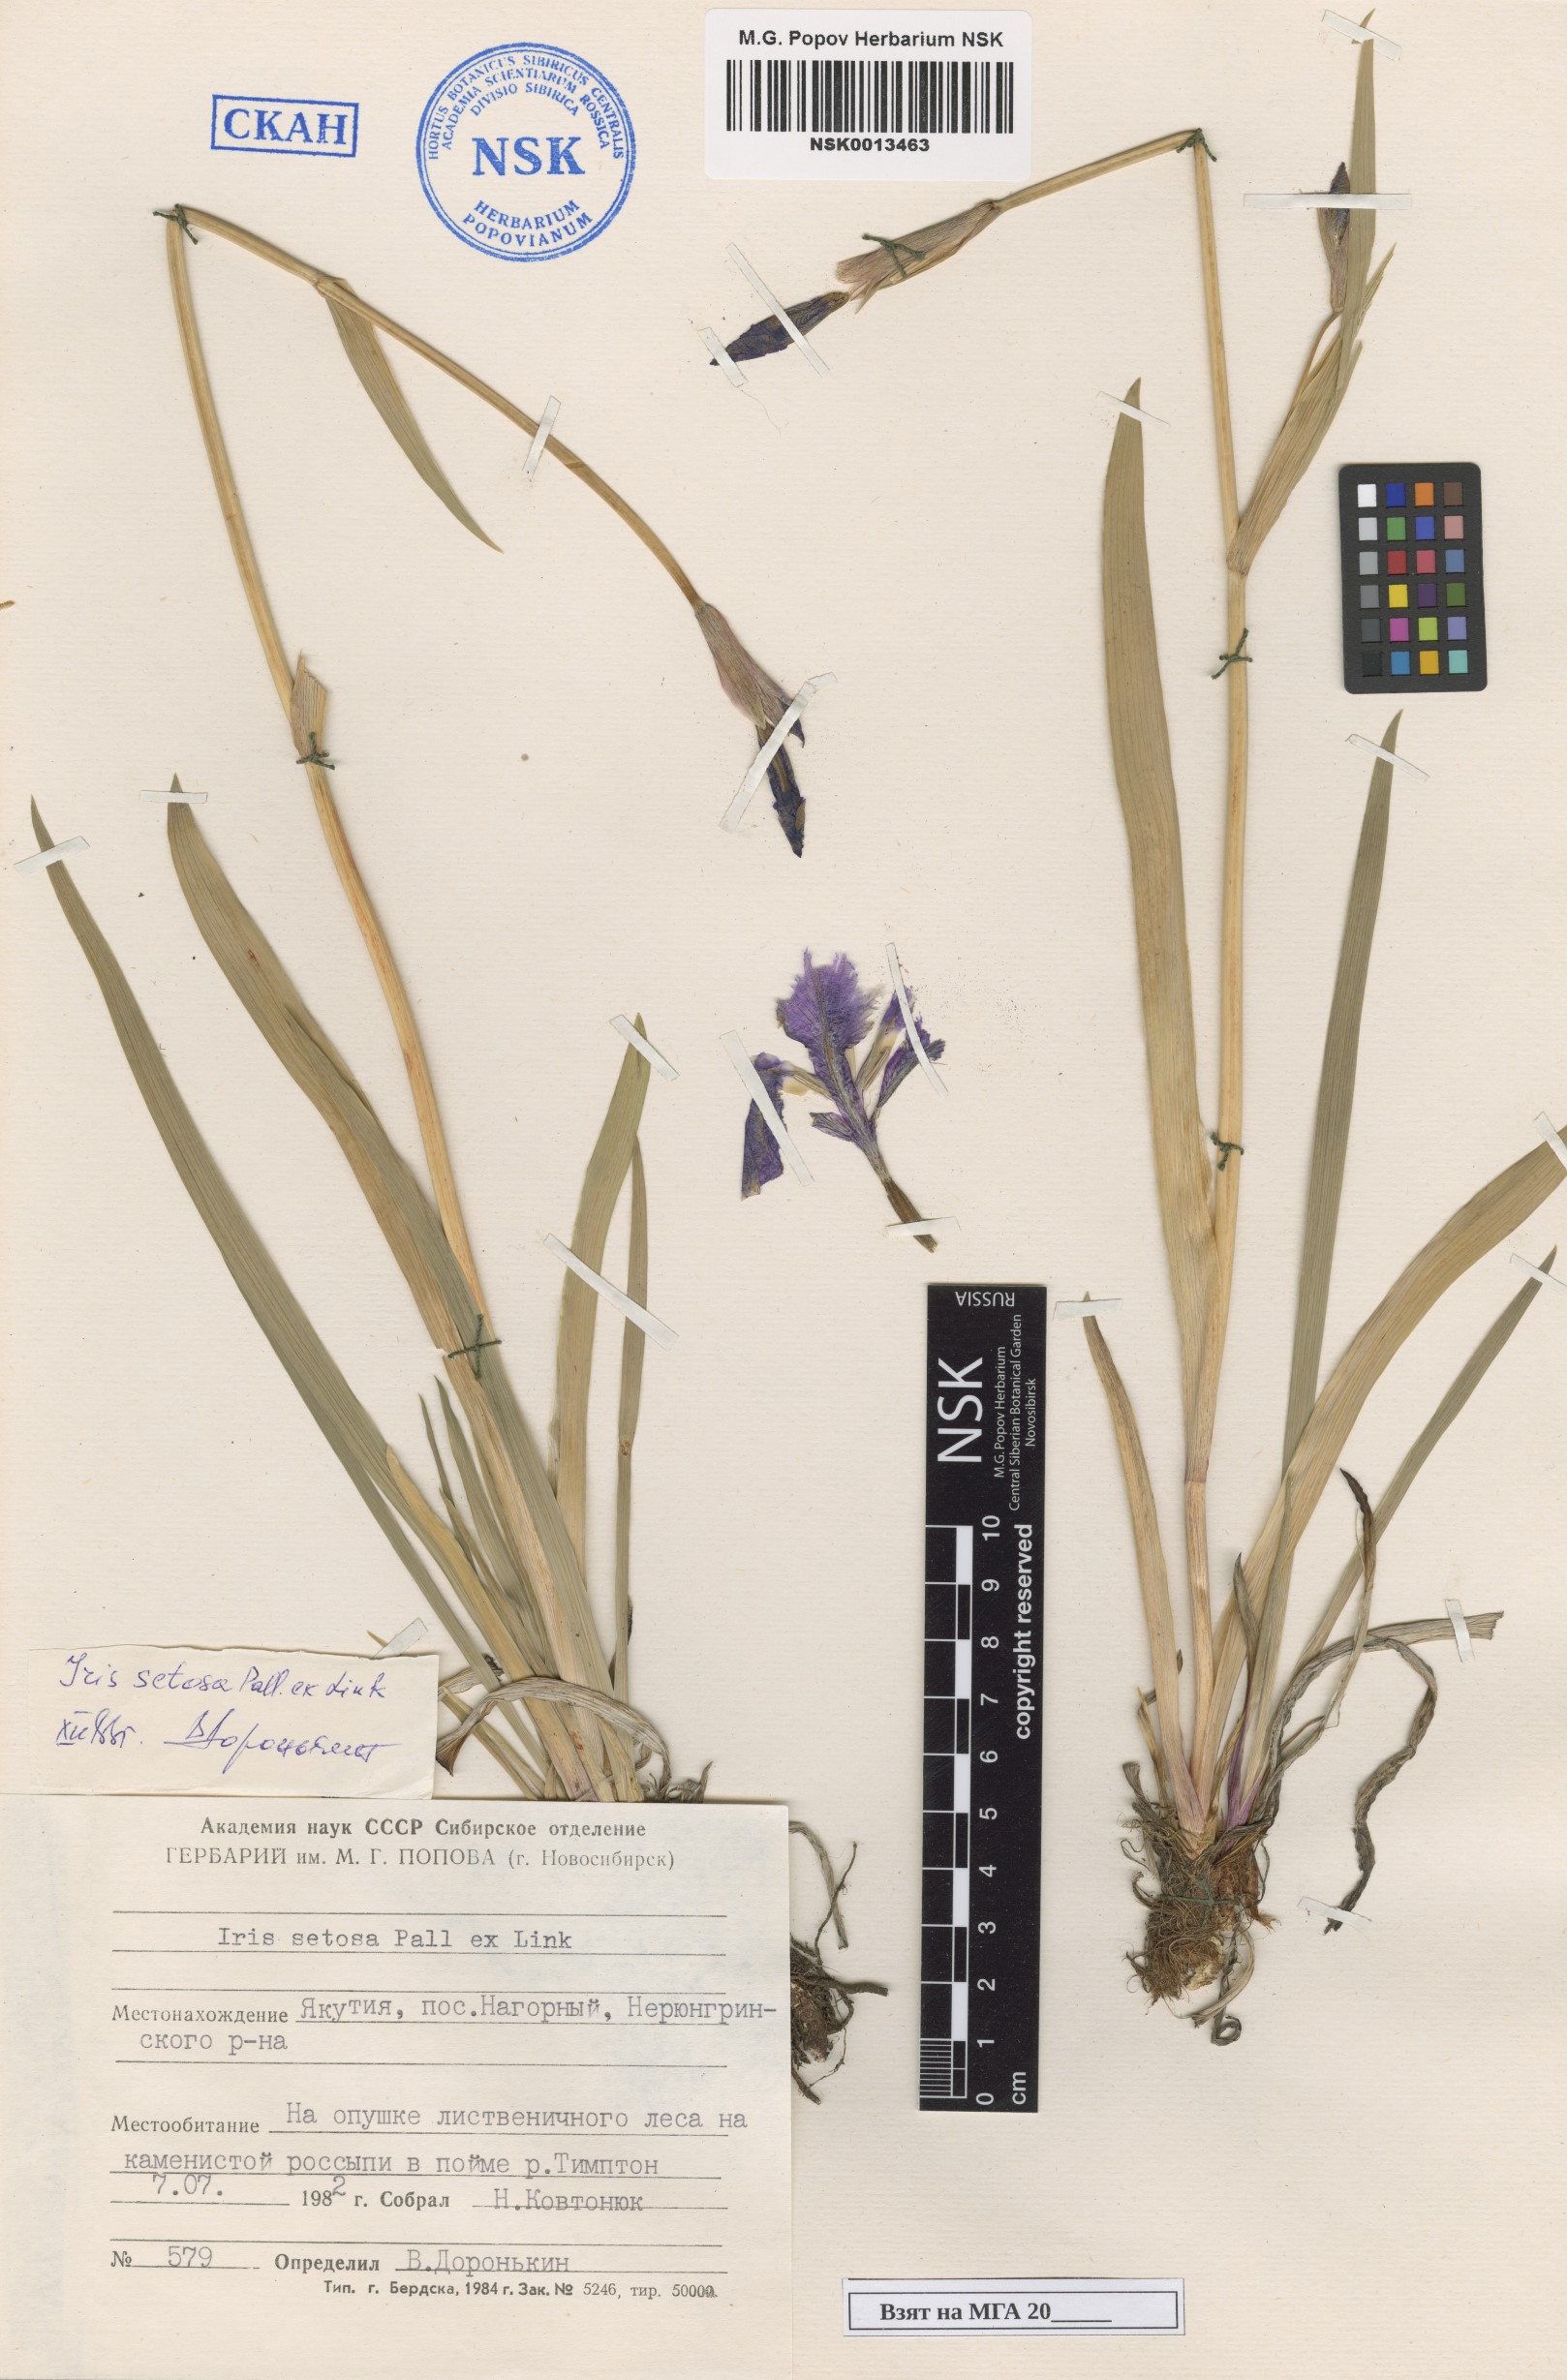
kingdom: Plantae
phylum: Tracheophyta
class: Liliopsida
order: Asparagales
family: Iridaceae
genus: Iris
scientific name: Iris setosa
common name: Arctic blue flag
